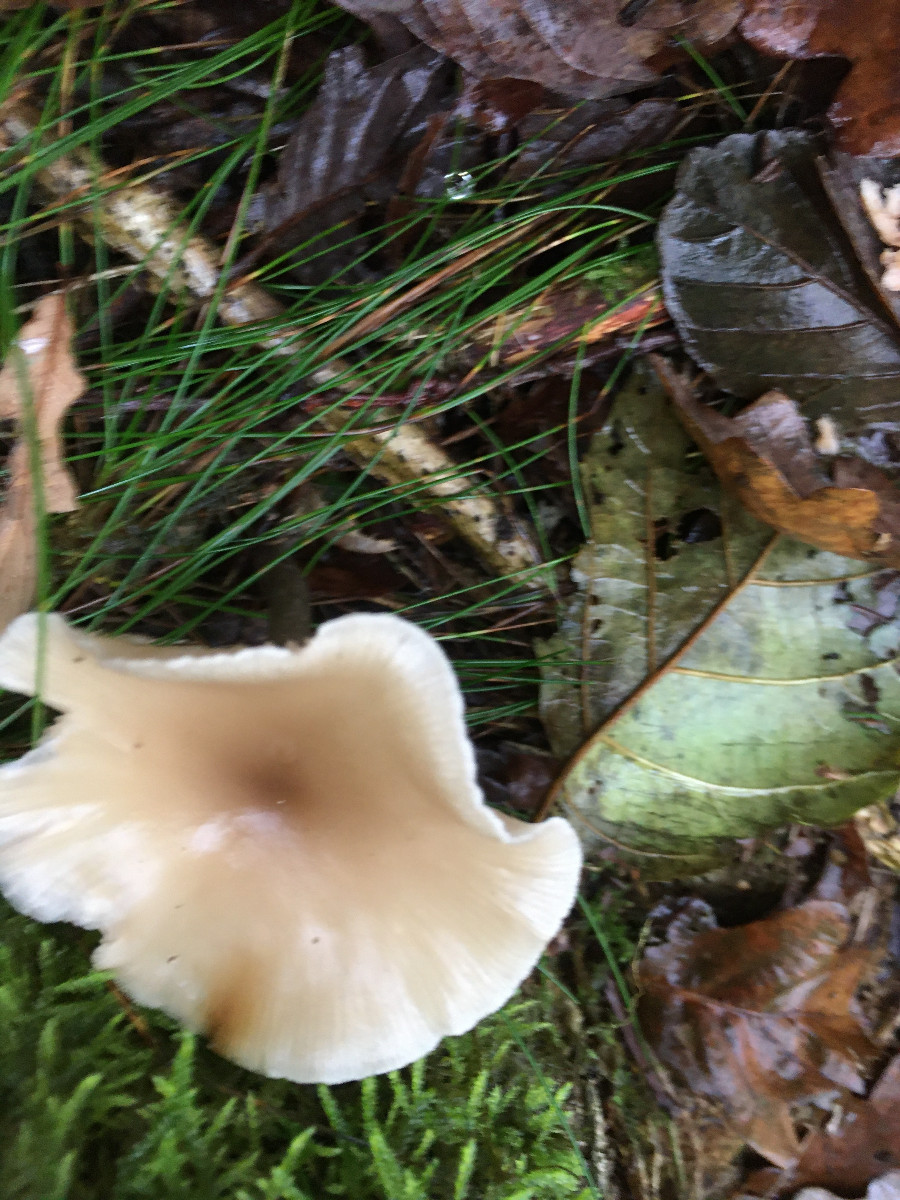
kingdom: Fungi
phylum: Basidiomycota
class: Agaricomycetes
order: Agaricales
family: Tricholomataceae
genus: Clitocybe
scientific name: Clitocybe
